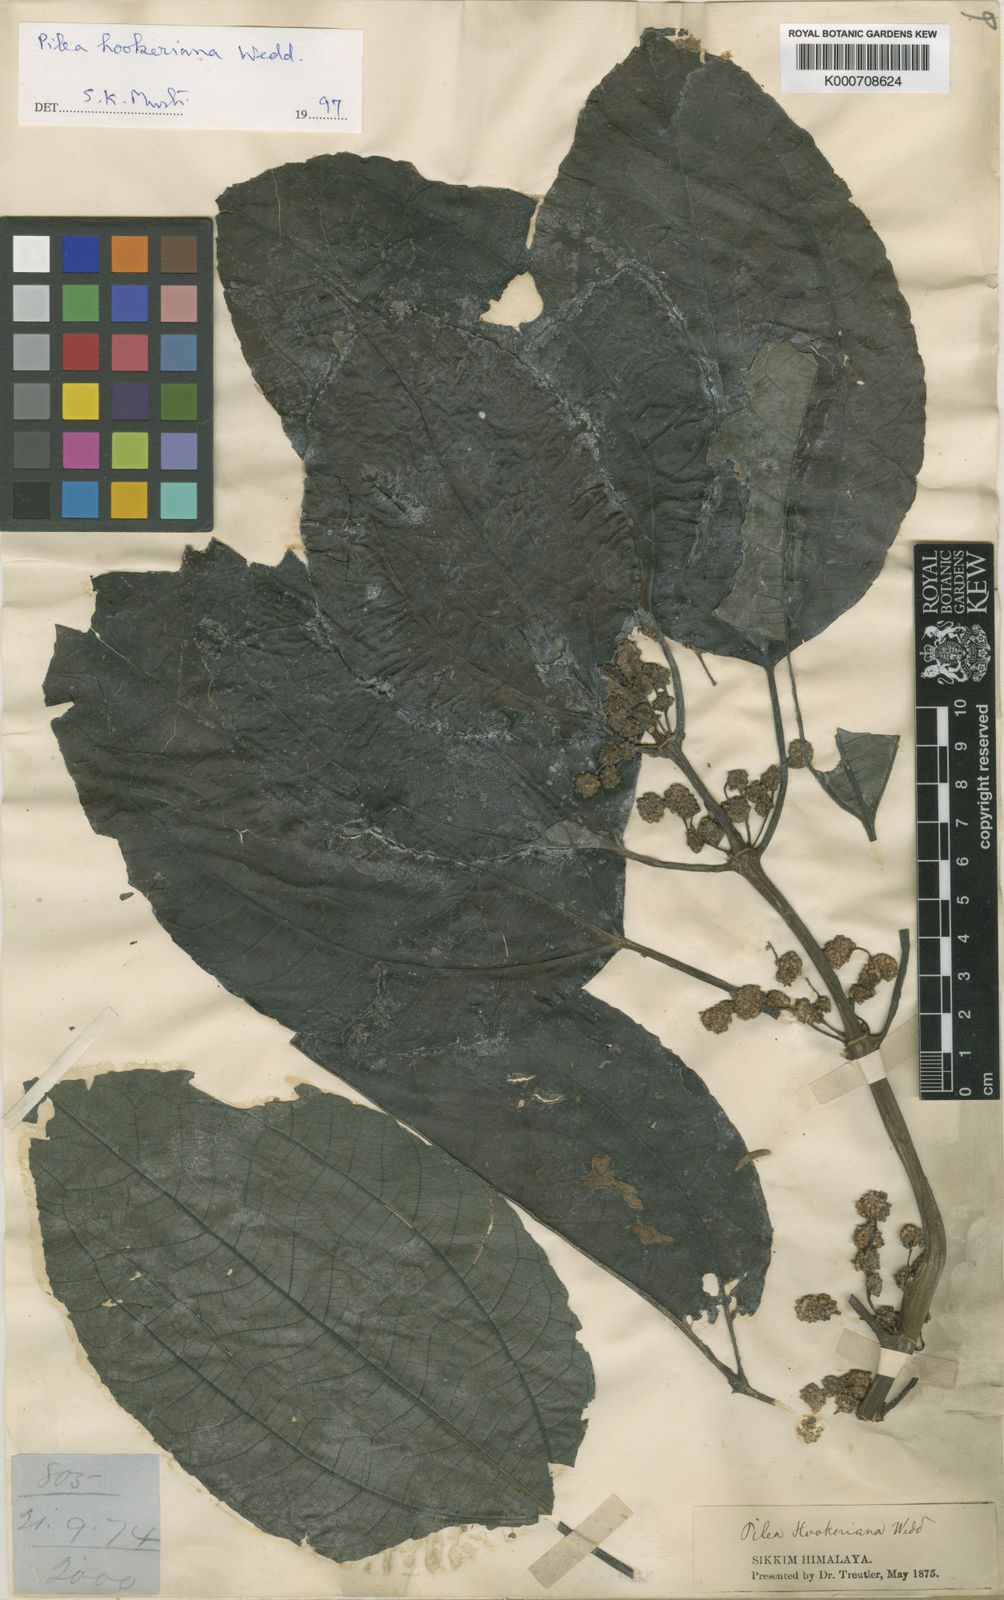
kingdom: Plantae
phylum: Tracheophyta
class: Magnoliopsida
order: Rosales
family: Urticaceae
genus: Pilea
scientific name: Pilea hookeriana
